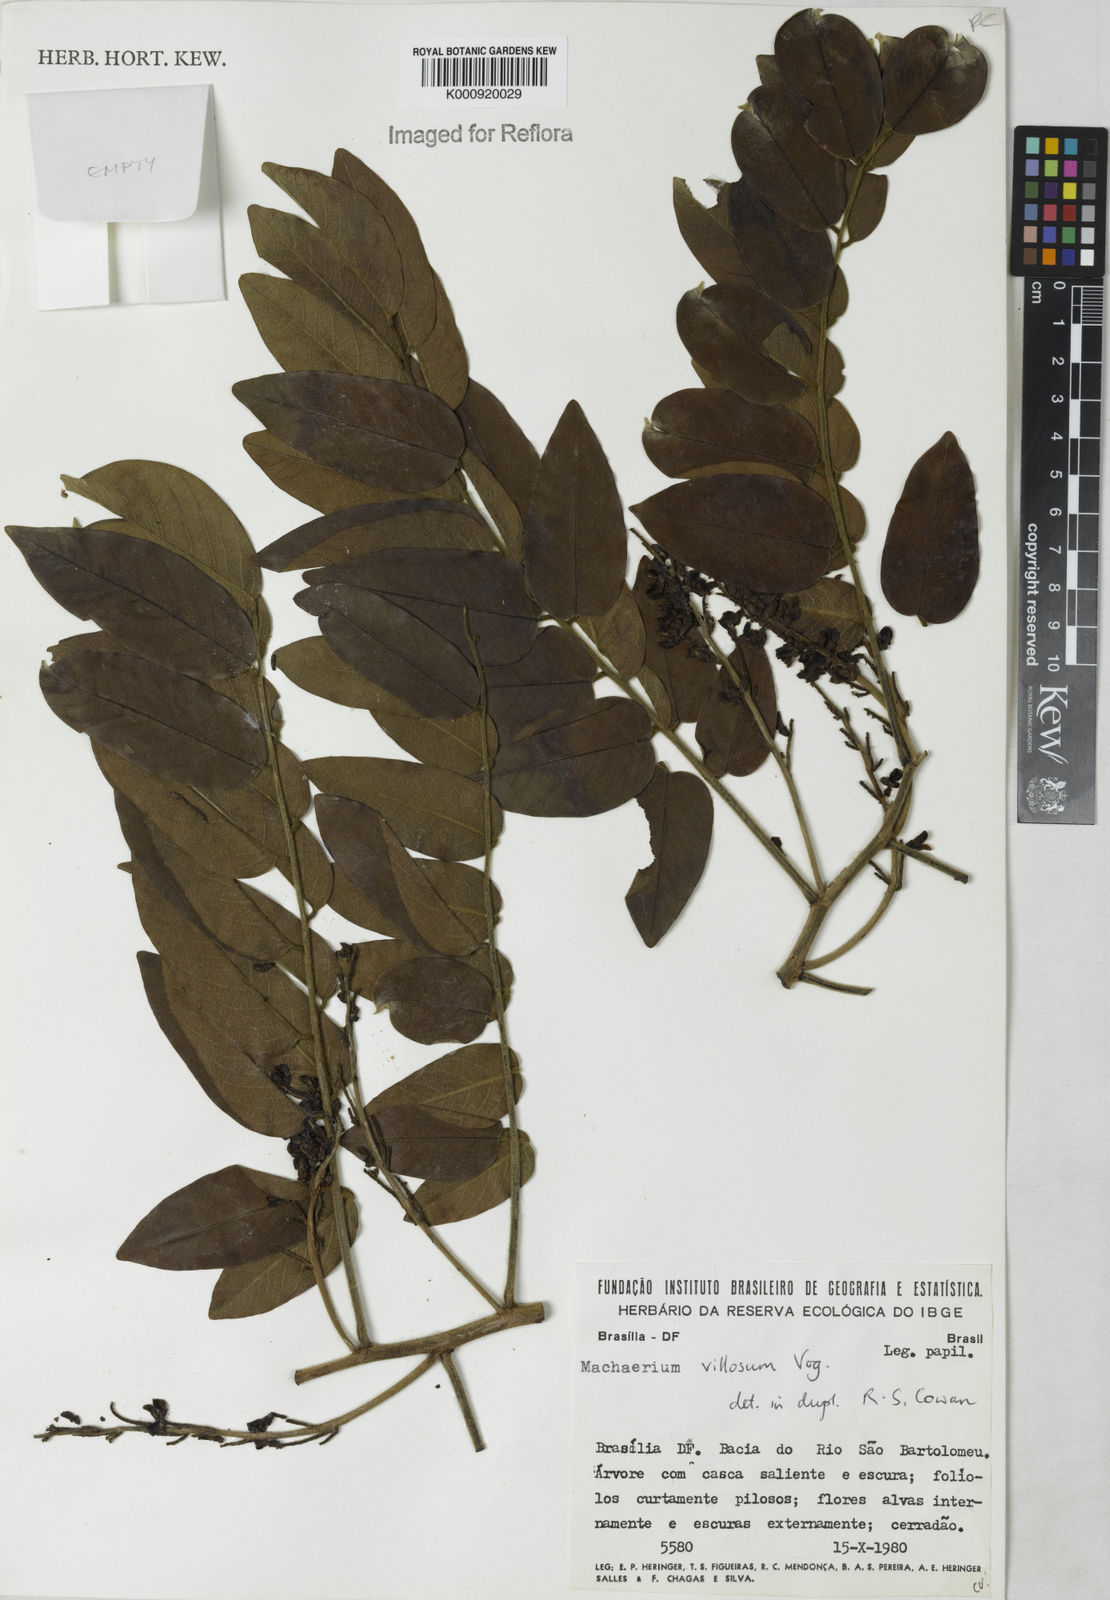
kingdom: Plantae
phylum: Tracheophyta
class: Magnoliopsida
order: Fabales
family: Fabaceae
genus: Machaerium
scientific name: Machaerium villosum
